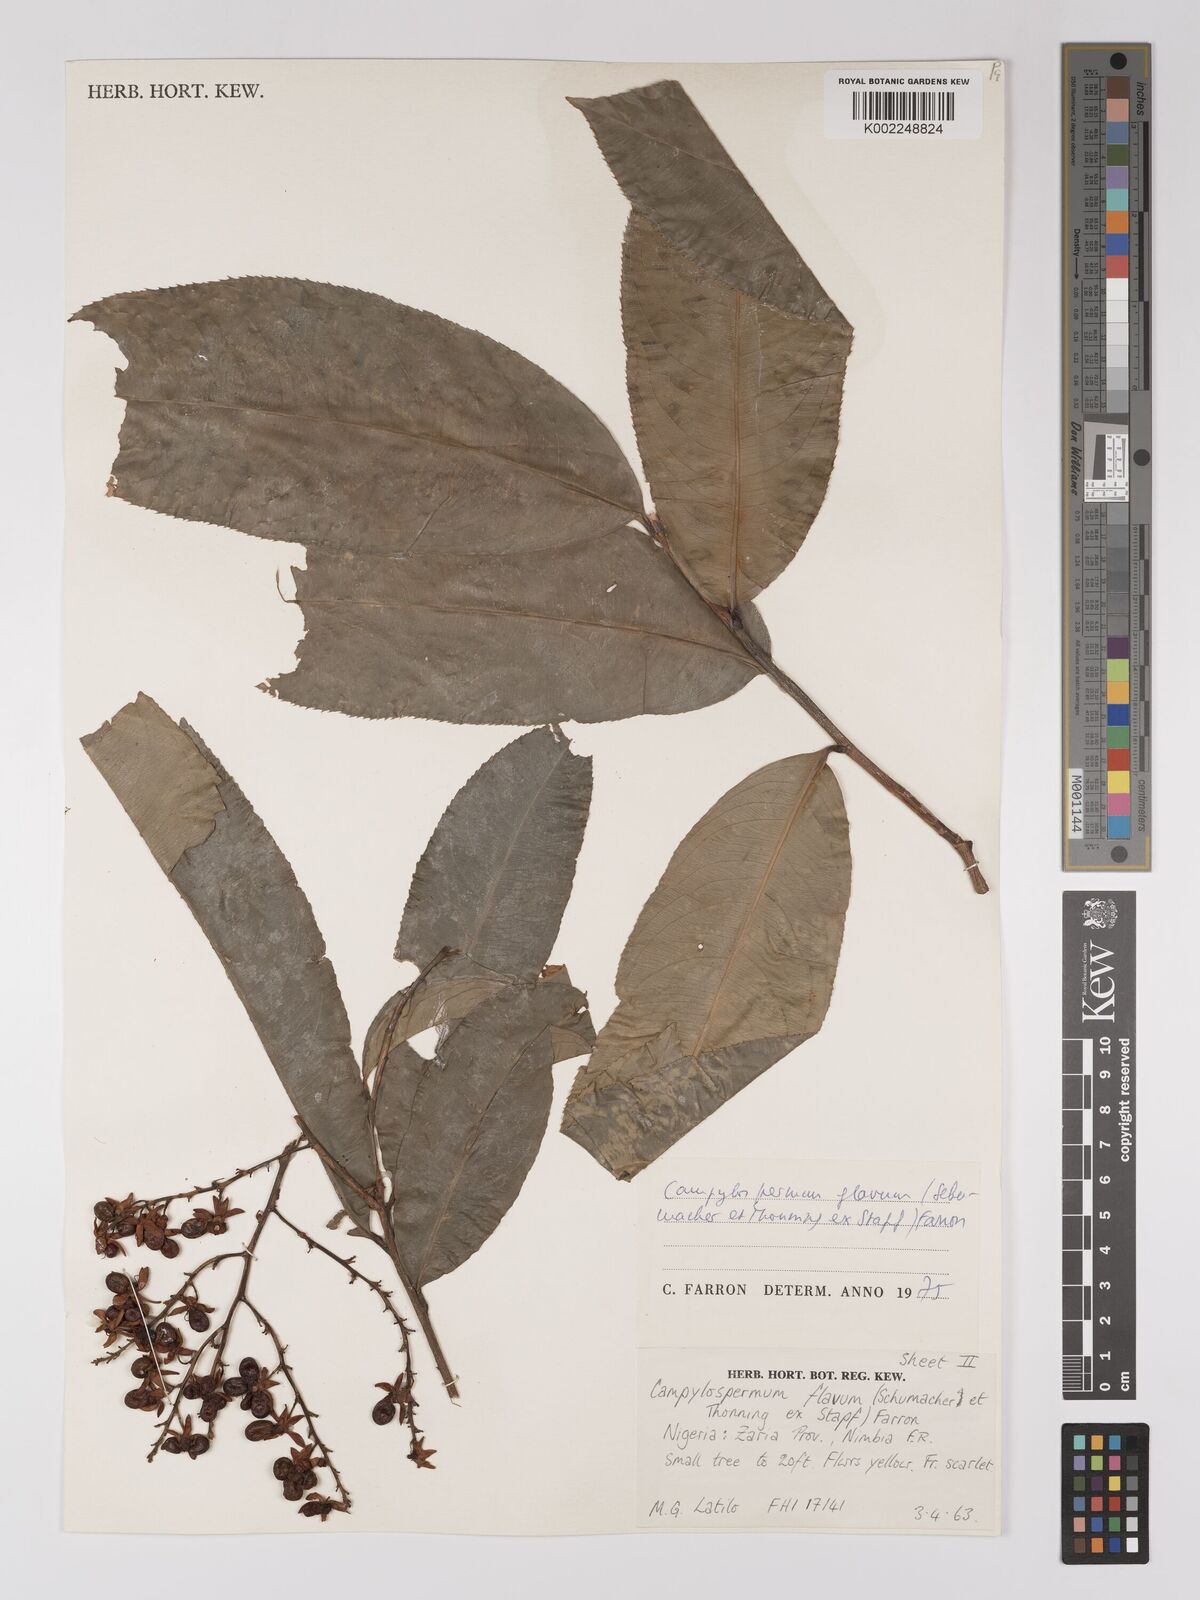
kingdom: Plantae
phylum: Tracheophyta
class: Magnoliopsida
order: Malpighiales
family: Ochnaceae
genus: Campylospermum
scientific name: Campylospermum flavum
